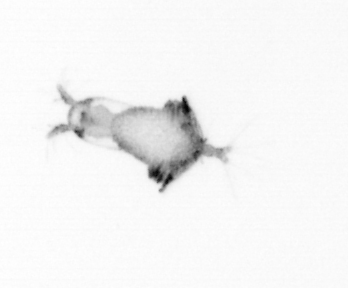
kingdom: Animalia
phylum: Arthropoda
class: Copepoda
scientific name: Copepoda
